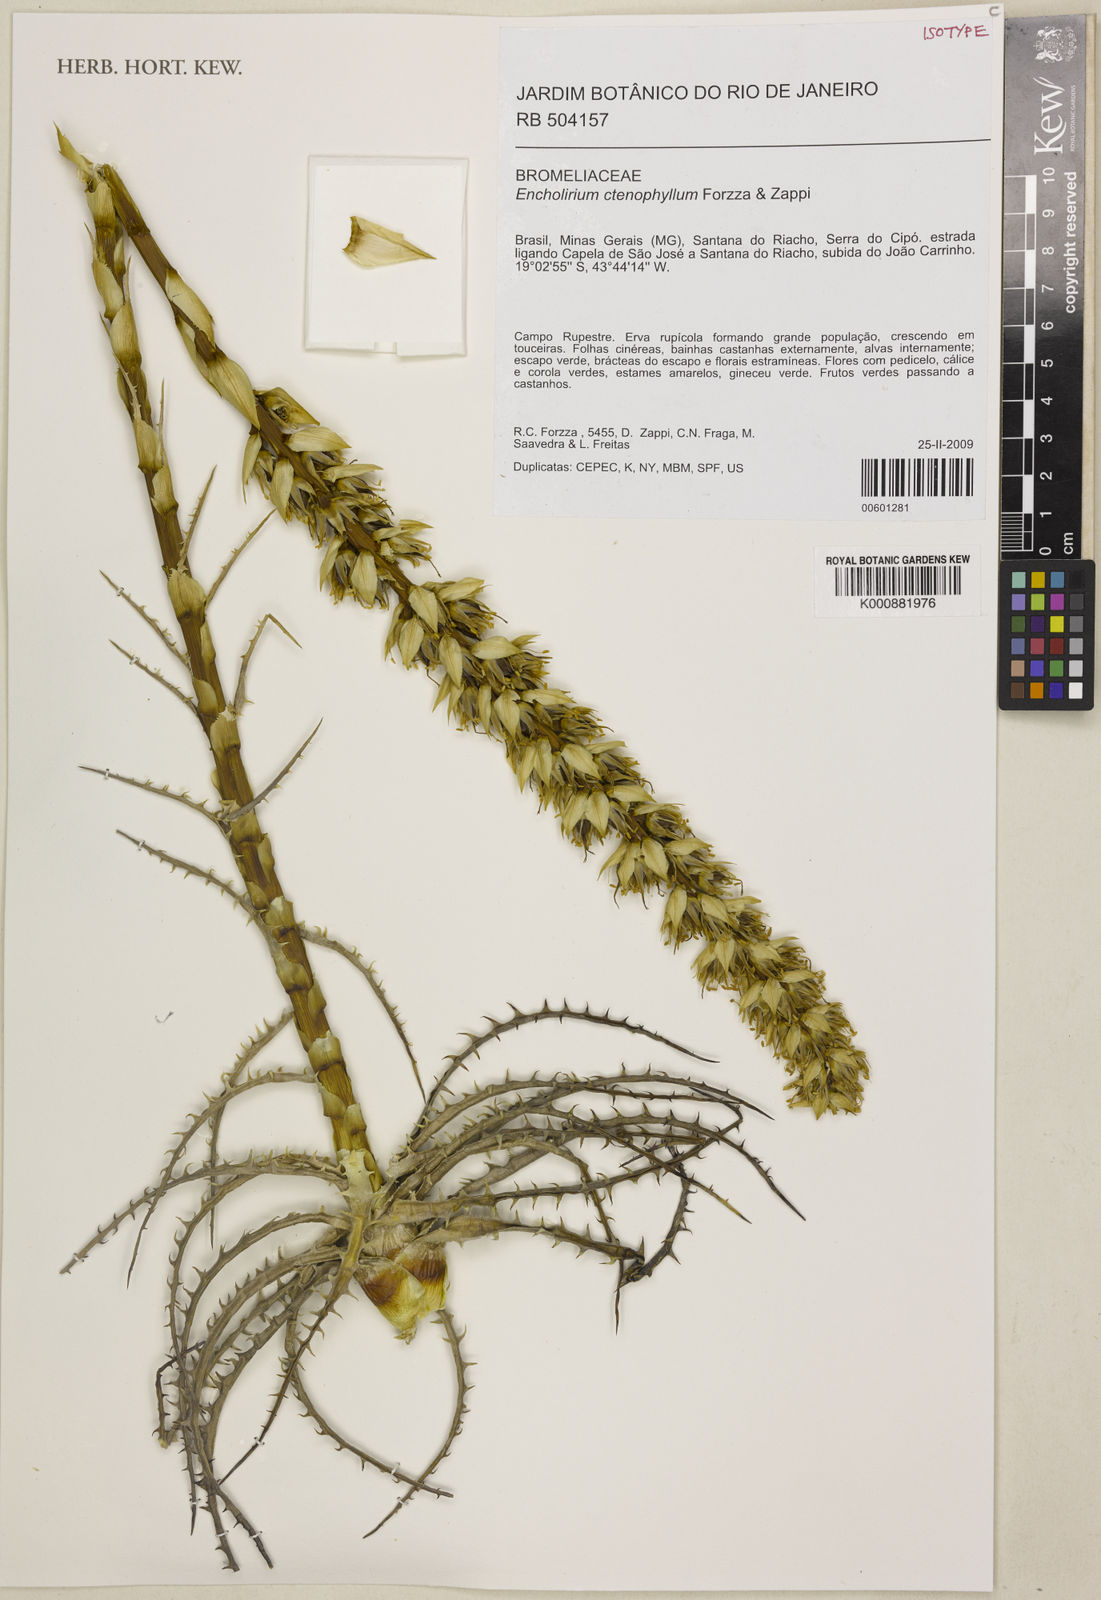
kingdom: Plantae
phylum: Tracheophyta
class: Liliopsida
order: Poales
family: Bromeliaceae
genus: Encholirium
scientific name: Encholirium ctenophyllum
